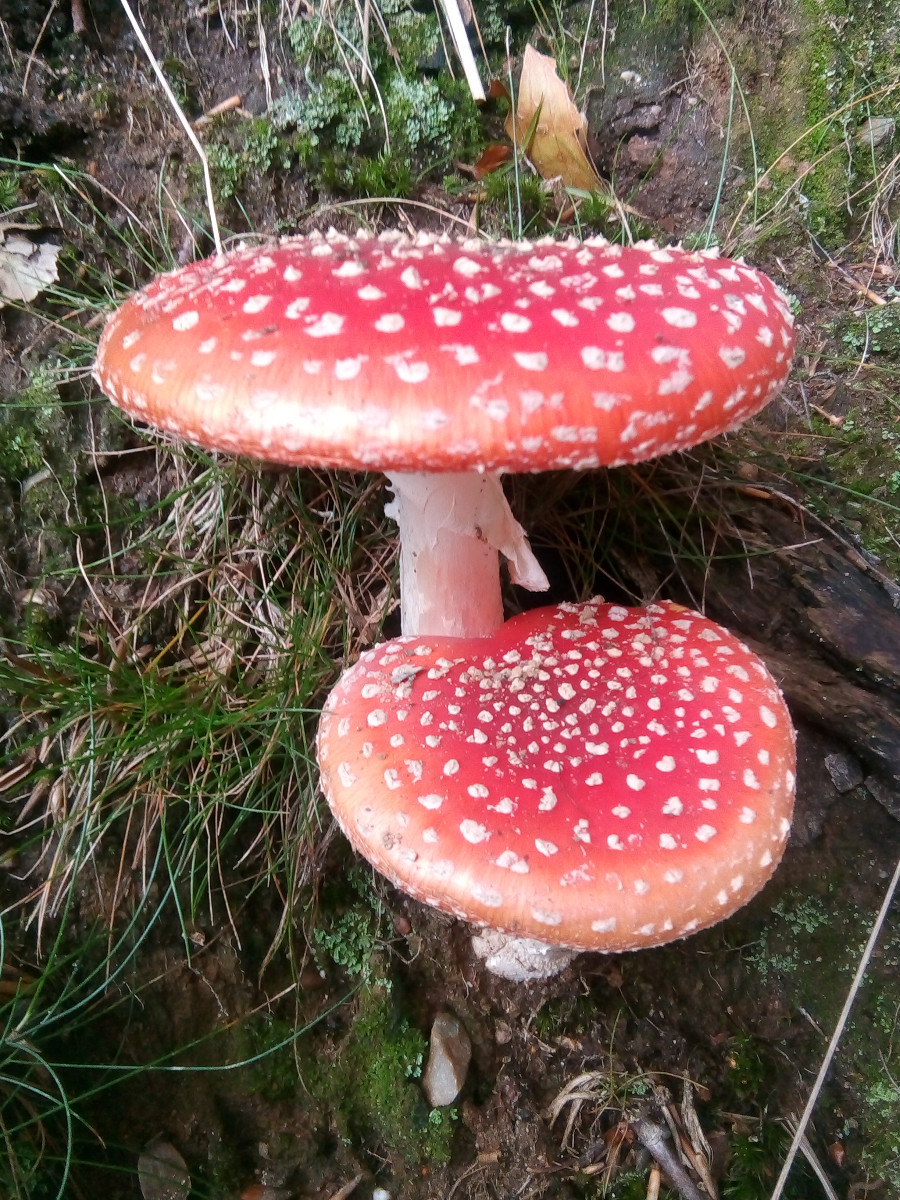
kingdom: Fungi
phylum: Basidiomycota
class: Agaricomycetes
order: Agaricales
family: Amanitaceae
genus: Amanita
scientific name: Amanita muscaria
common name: rød fluesvamp
